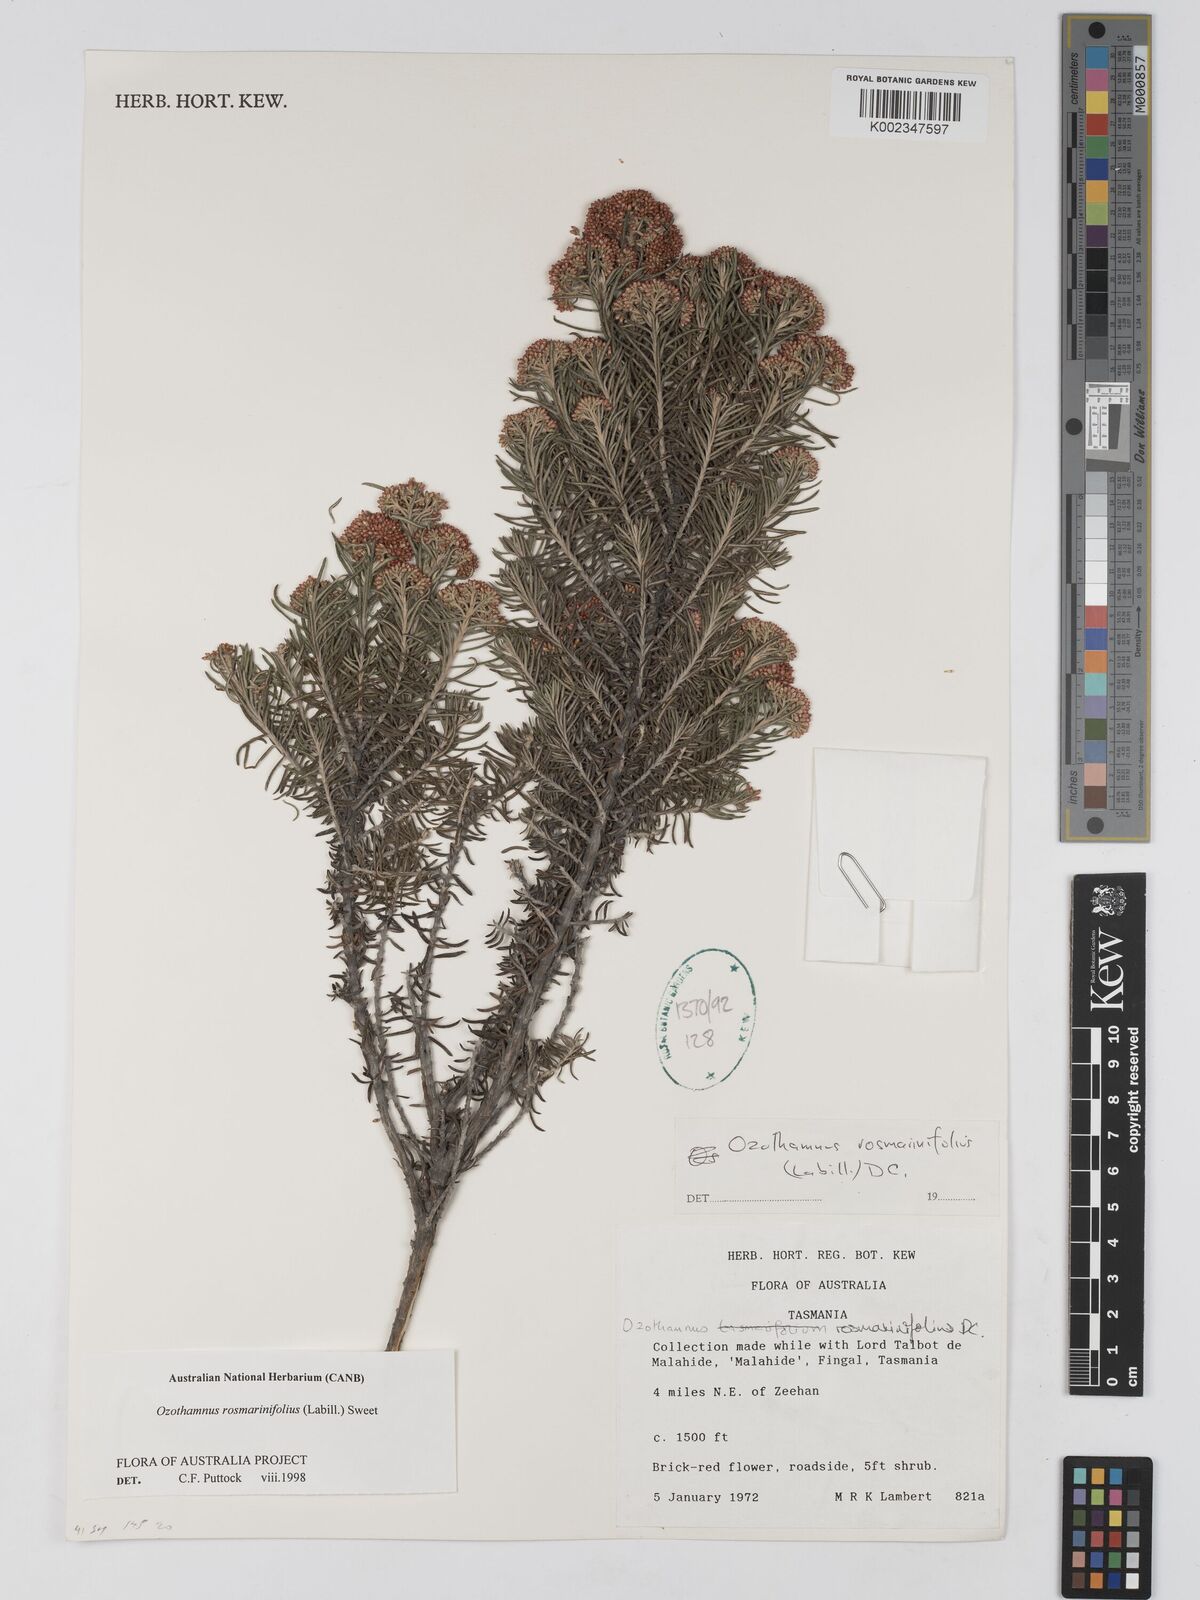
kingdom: Plantae
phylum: Tracheophyta
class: Magnoliopsida
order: Asterales
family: Asteraceae
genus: Ozothamnus
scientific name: Ozothamnus rosmarinifolius
